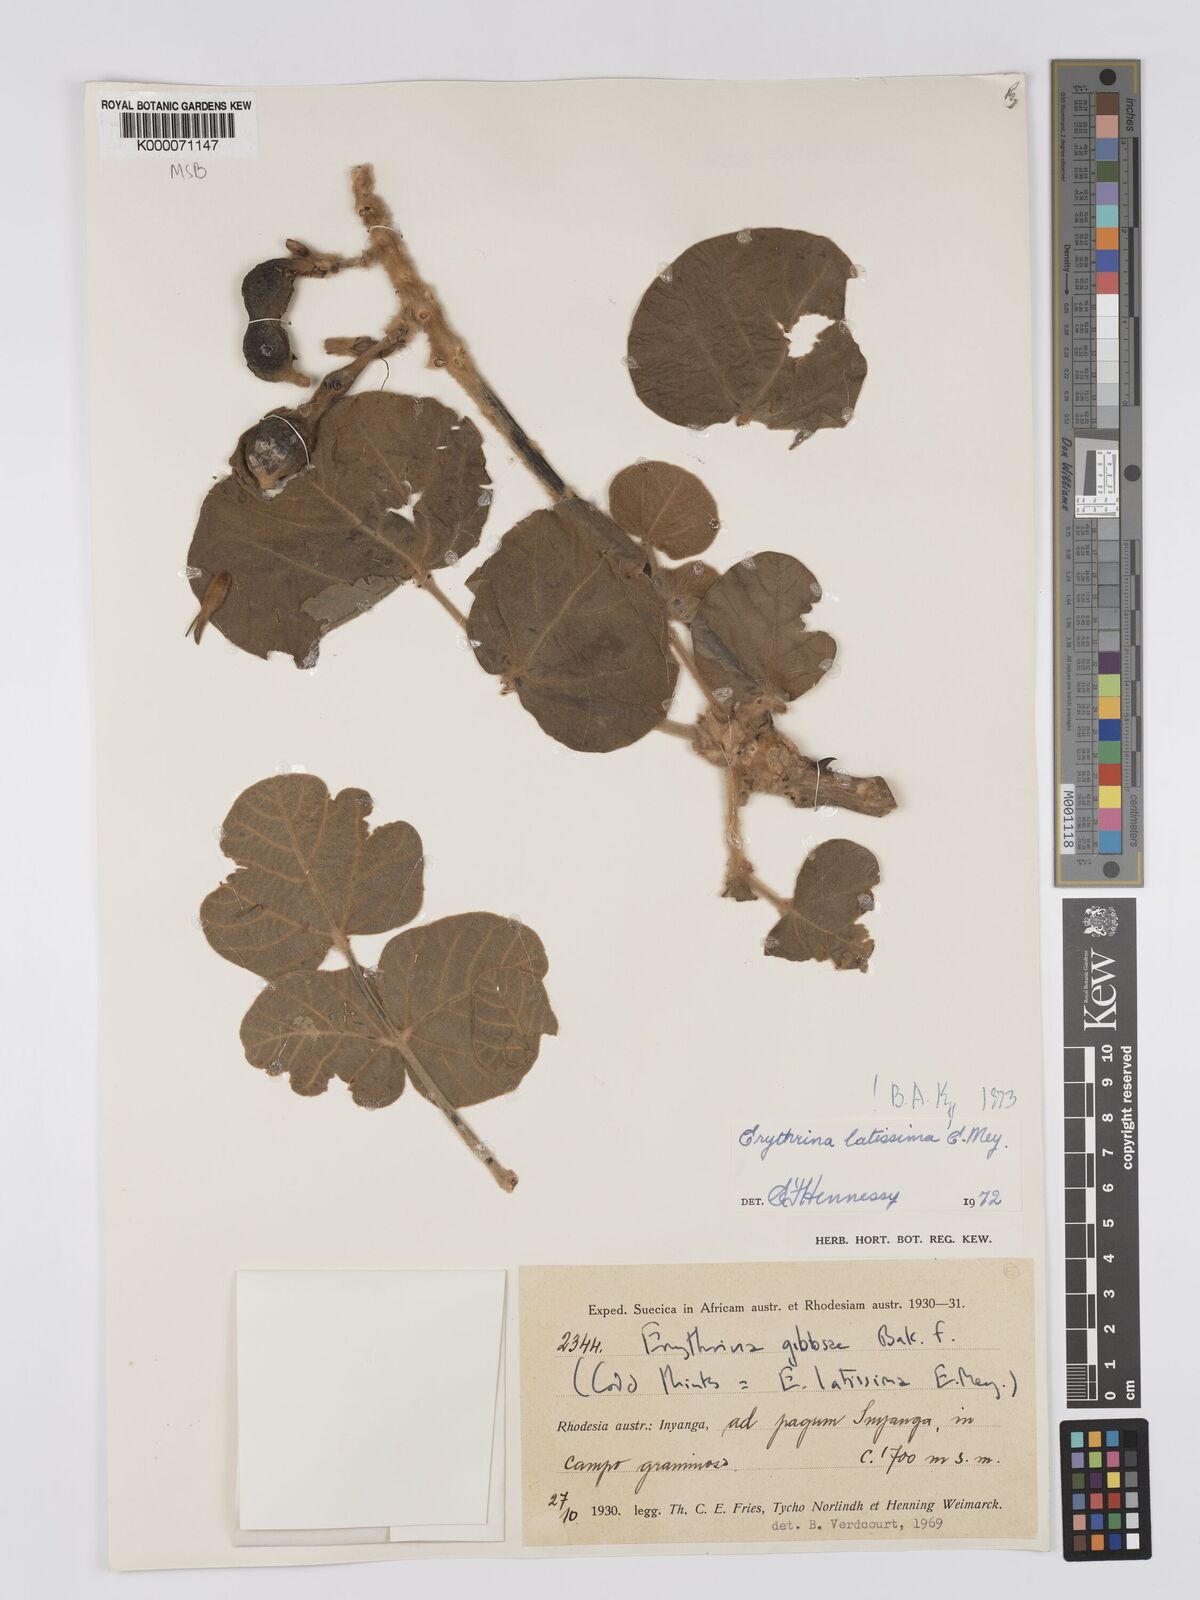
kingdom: Plantae
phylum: Tracheophyta
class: Magnoliopsida
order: Fabales
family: Fabaceae
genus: Erythrina
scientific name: Erythrina latissima
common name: Broad-leaved coral tree
